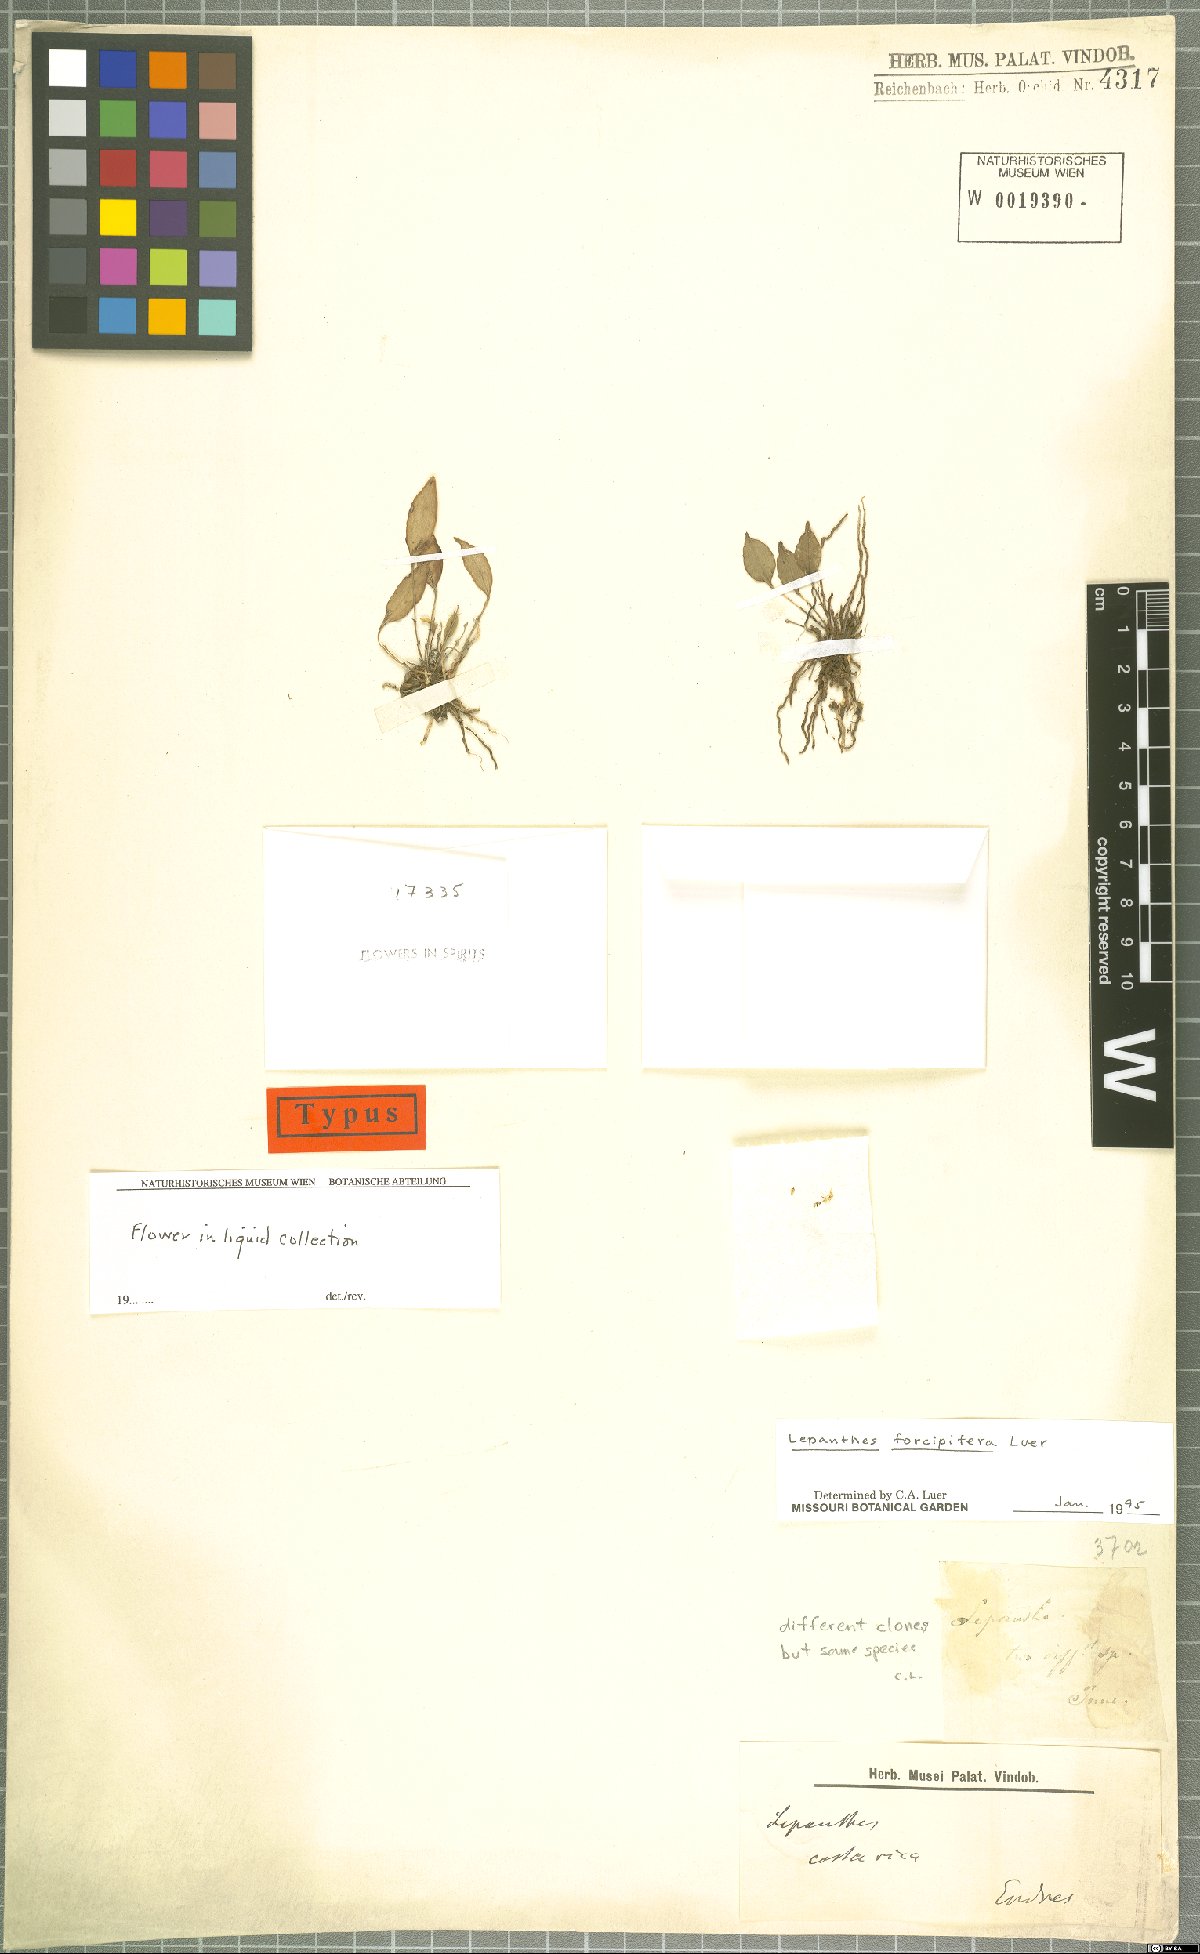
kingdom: Plantae
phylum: Tracheophyta
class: Liliopsida
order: Asparagales
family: Orchidaceae
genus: Lepanthes
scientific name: Lepanthes forcipifera
